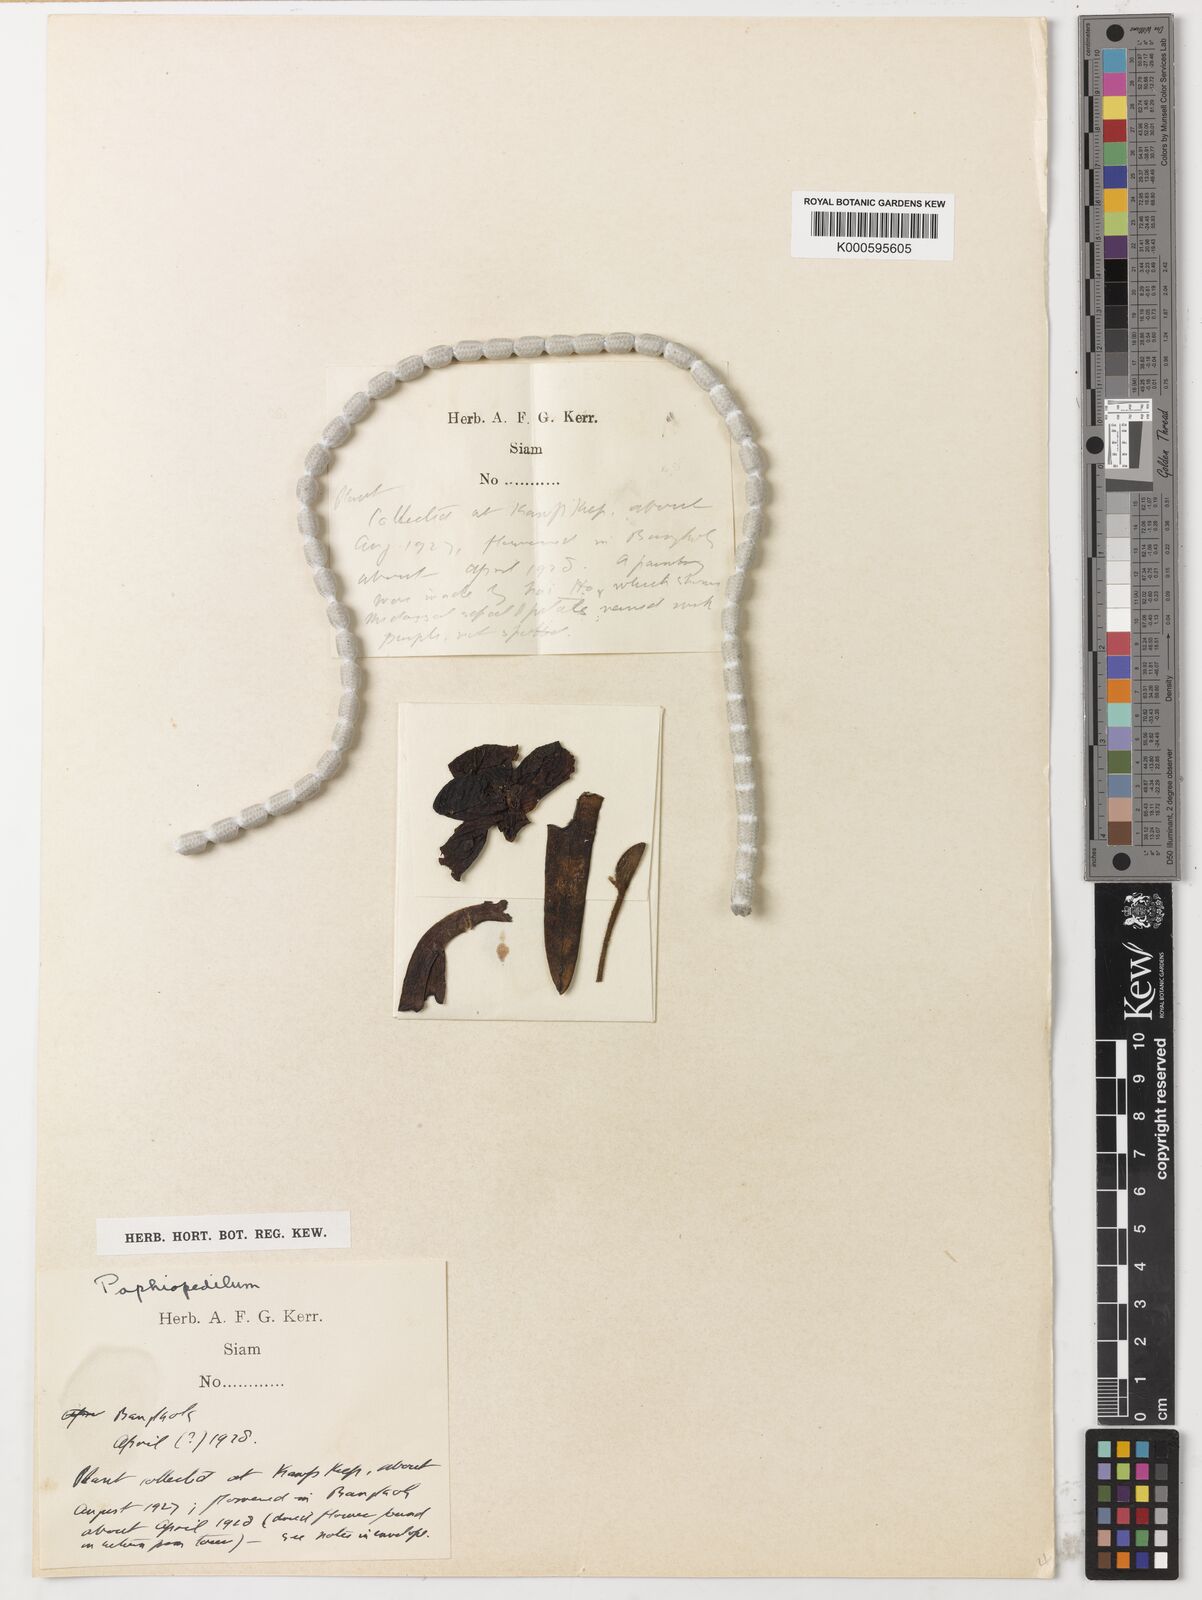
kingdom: Plantae
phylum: Tracheophyta
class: Liliopsida
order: Asparagales
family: Orchidaceae
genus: Paphiopedilum
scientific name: Paphiopedilum godefroyae
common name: Godefroy's paphiopedilum
